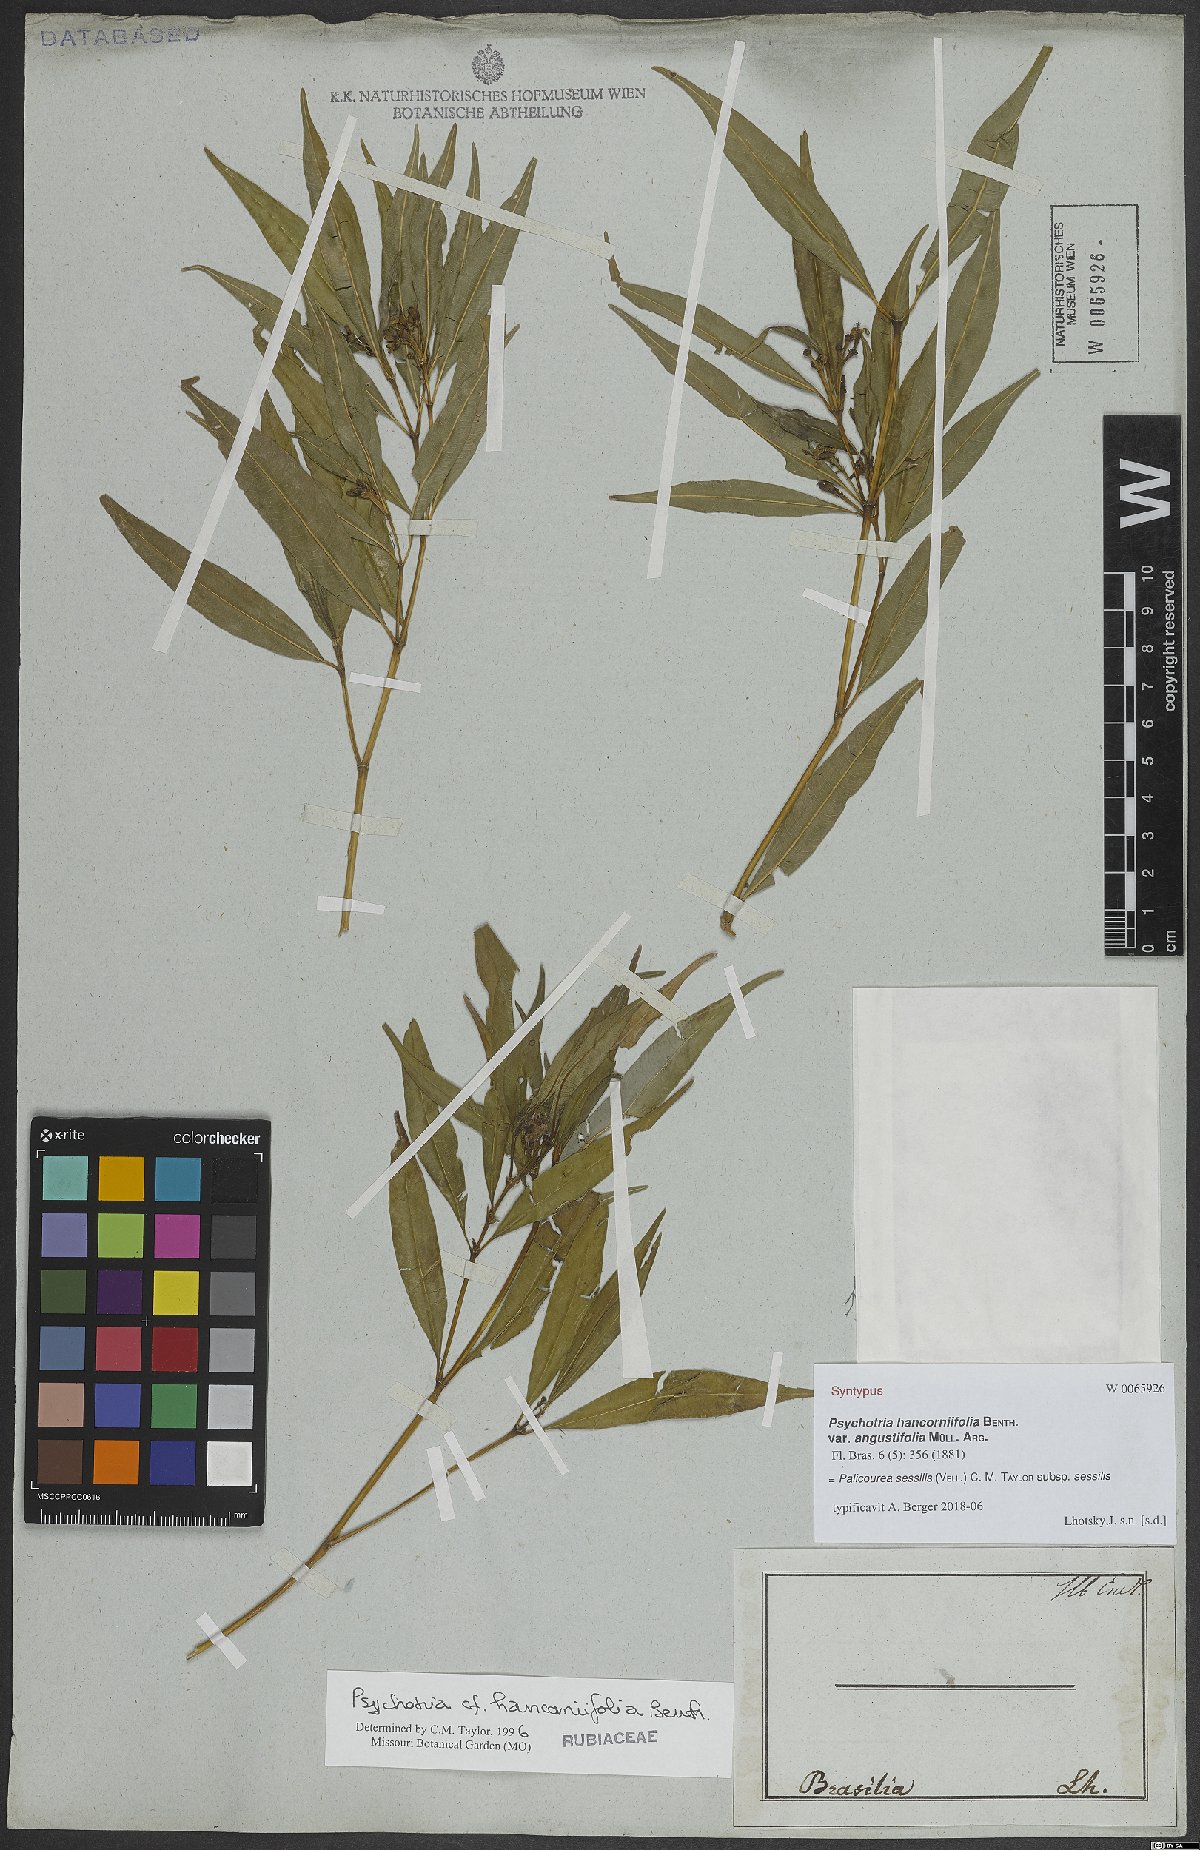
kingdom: Plantae
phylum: Tracheophyta
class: Magnoliopsida
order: Gentianales
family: Rubiaceae
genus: Palicourea
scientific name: Palicourea sessilis
